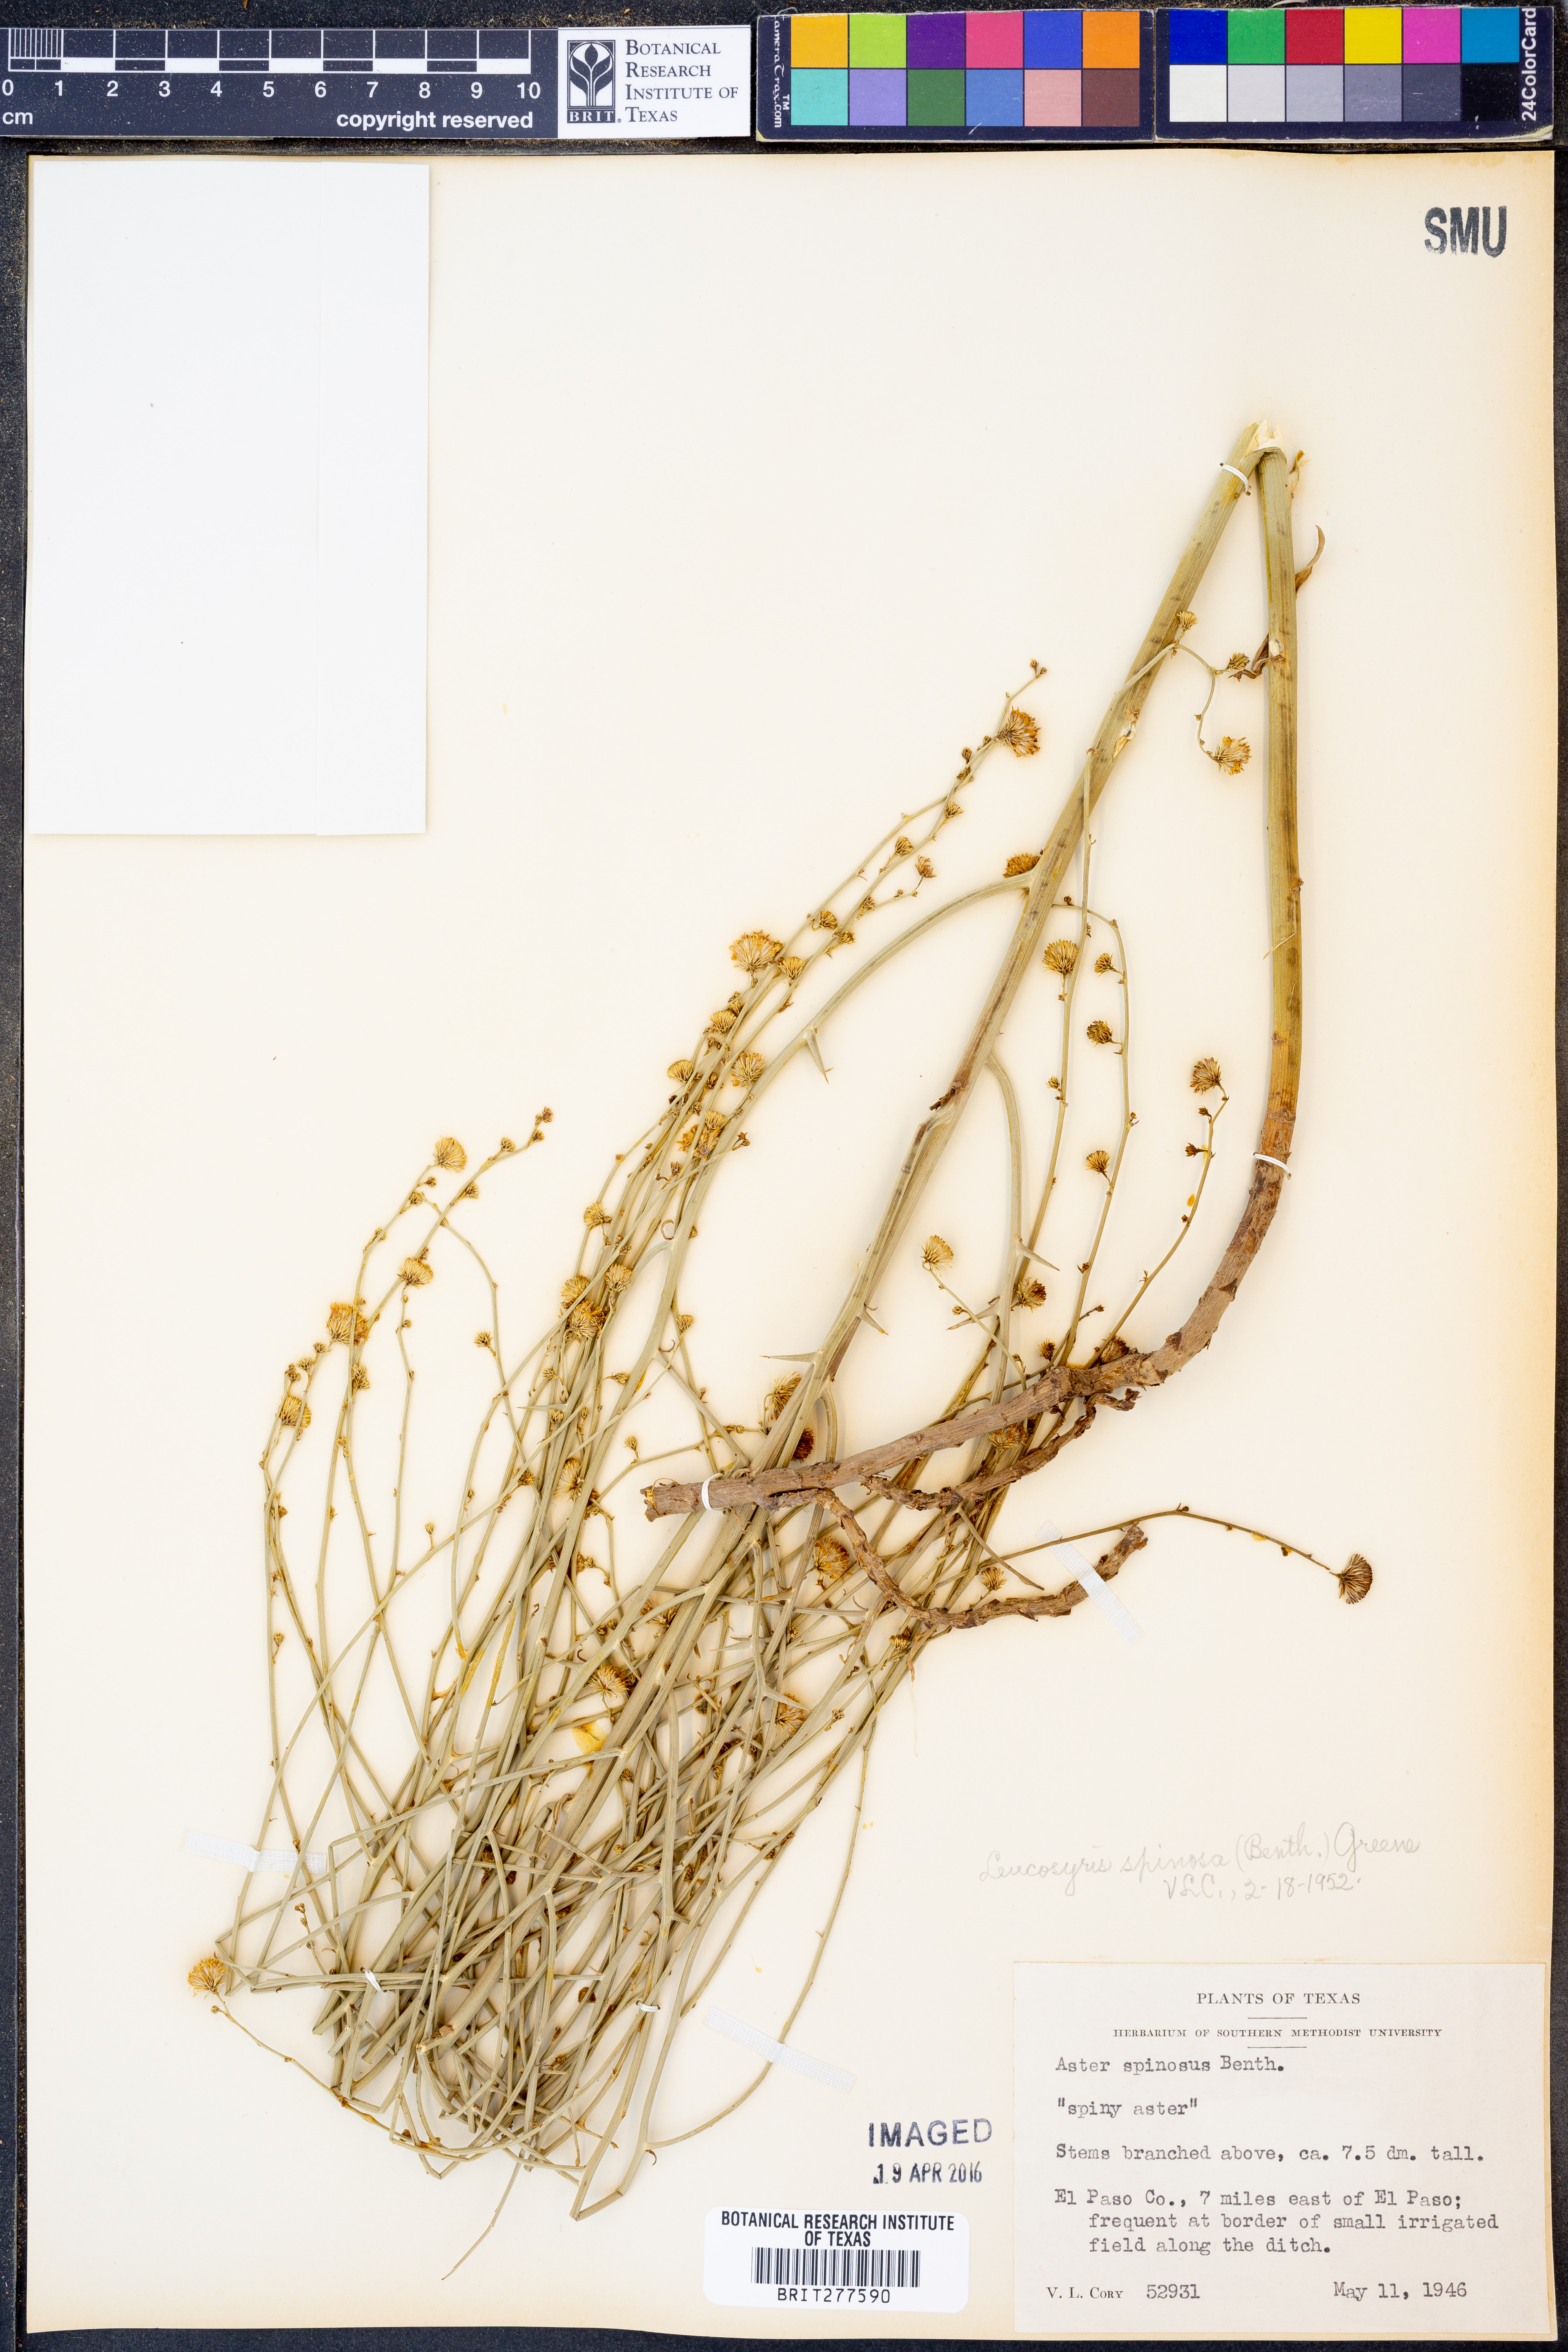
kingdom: Plantae
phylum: Tracheophyta
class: Magnoliopsida
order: Asterales
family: Asteraceae
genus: Chloracantha
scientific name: Chloracantha spinosa
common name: Mexican devilweed
